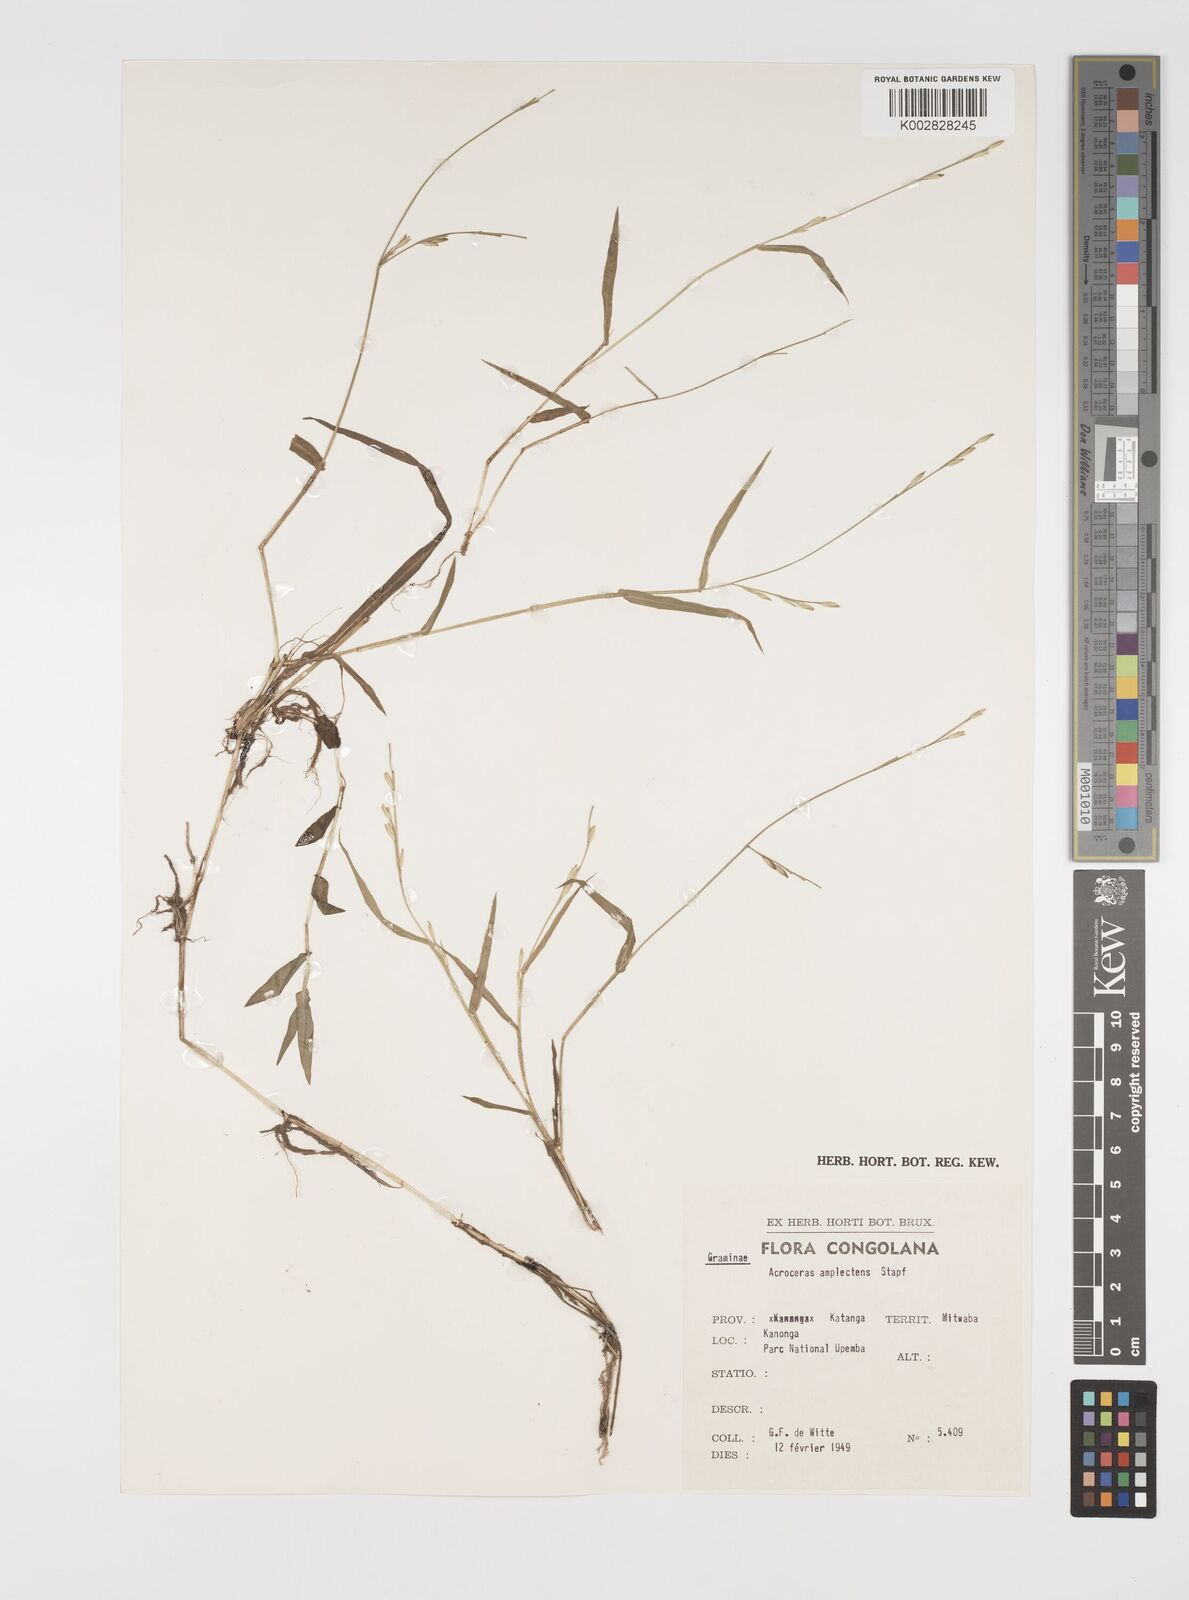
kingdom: Plantae
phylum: Tracheophyta
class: Liliopsida
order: Poales
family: Poaceae
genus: Acroceras
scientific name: Acroceras amplectens
